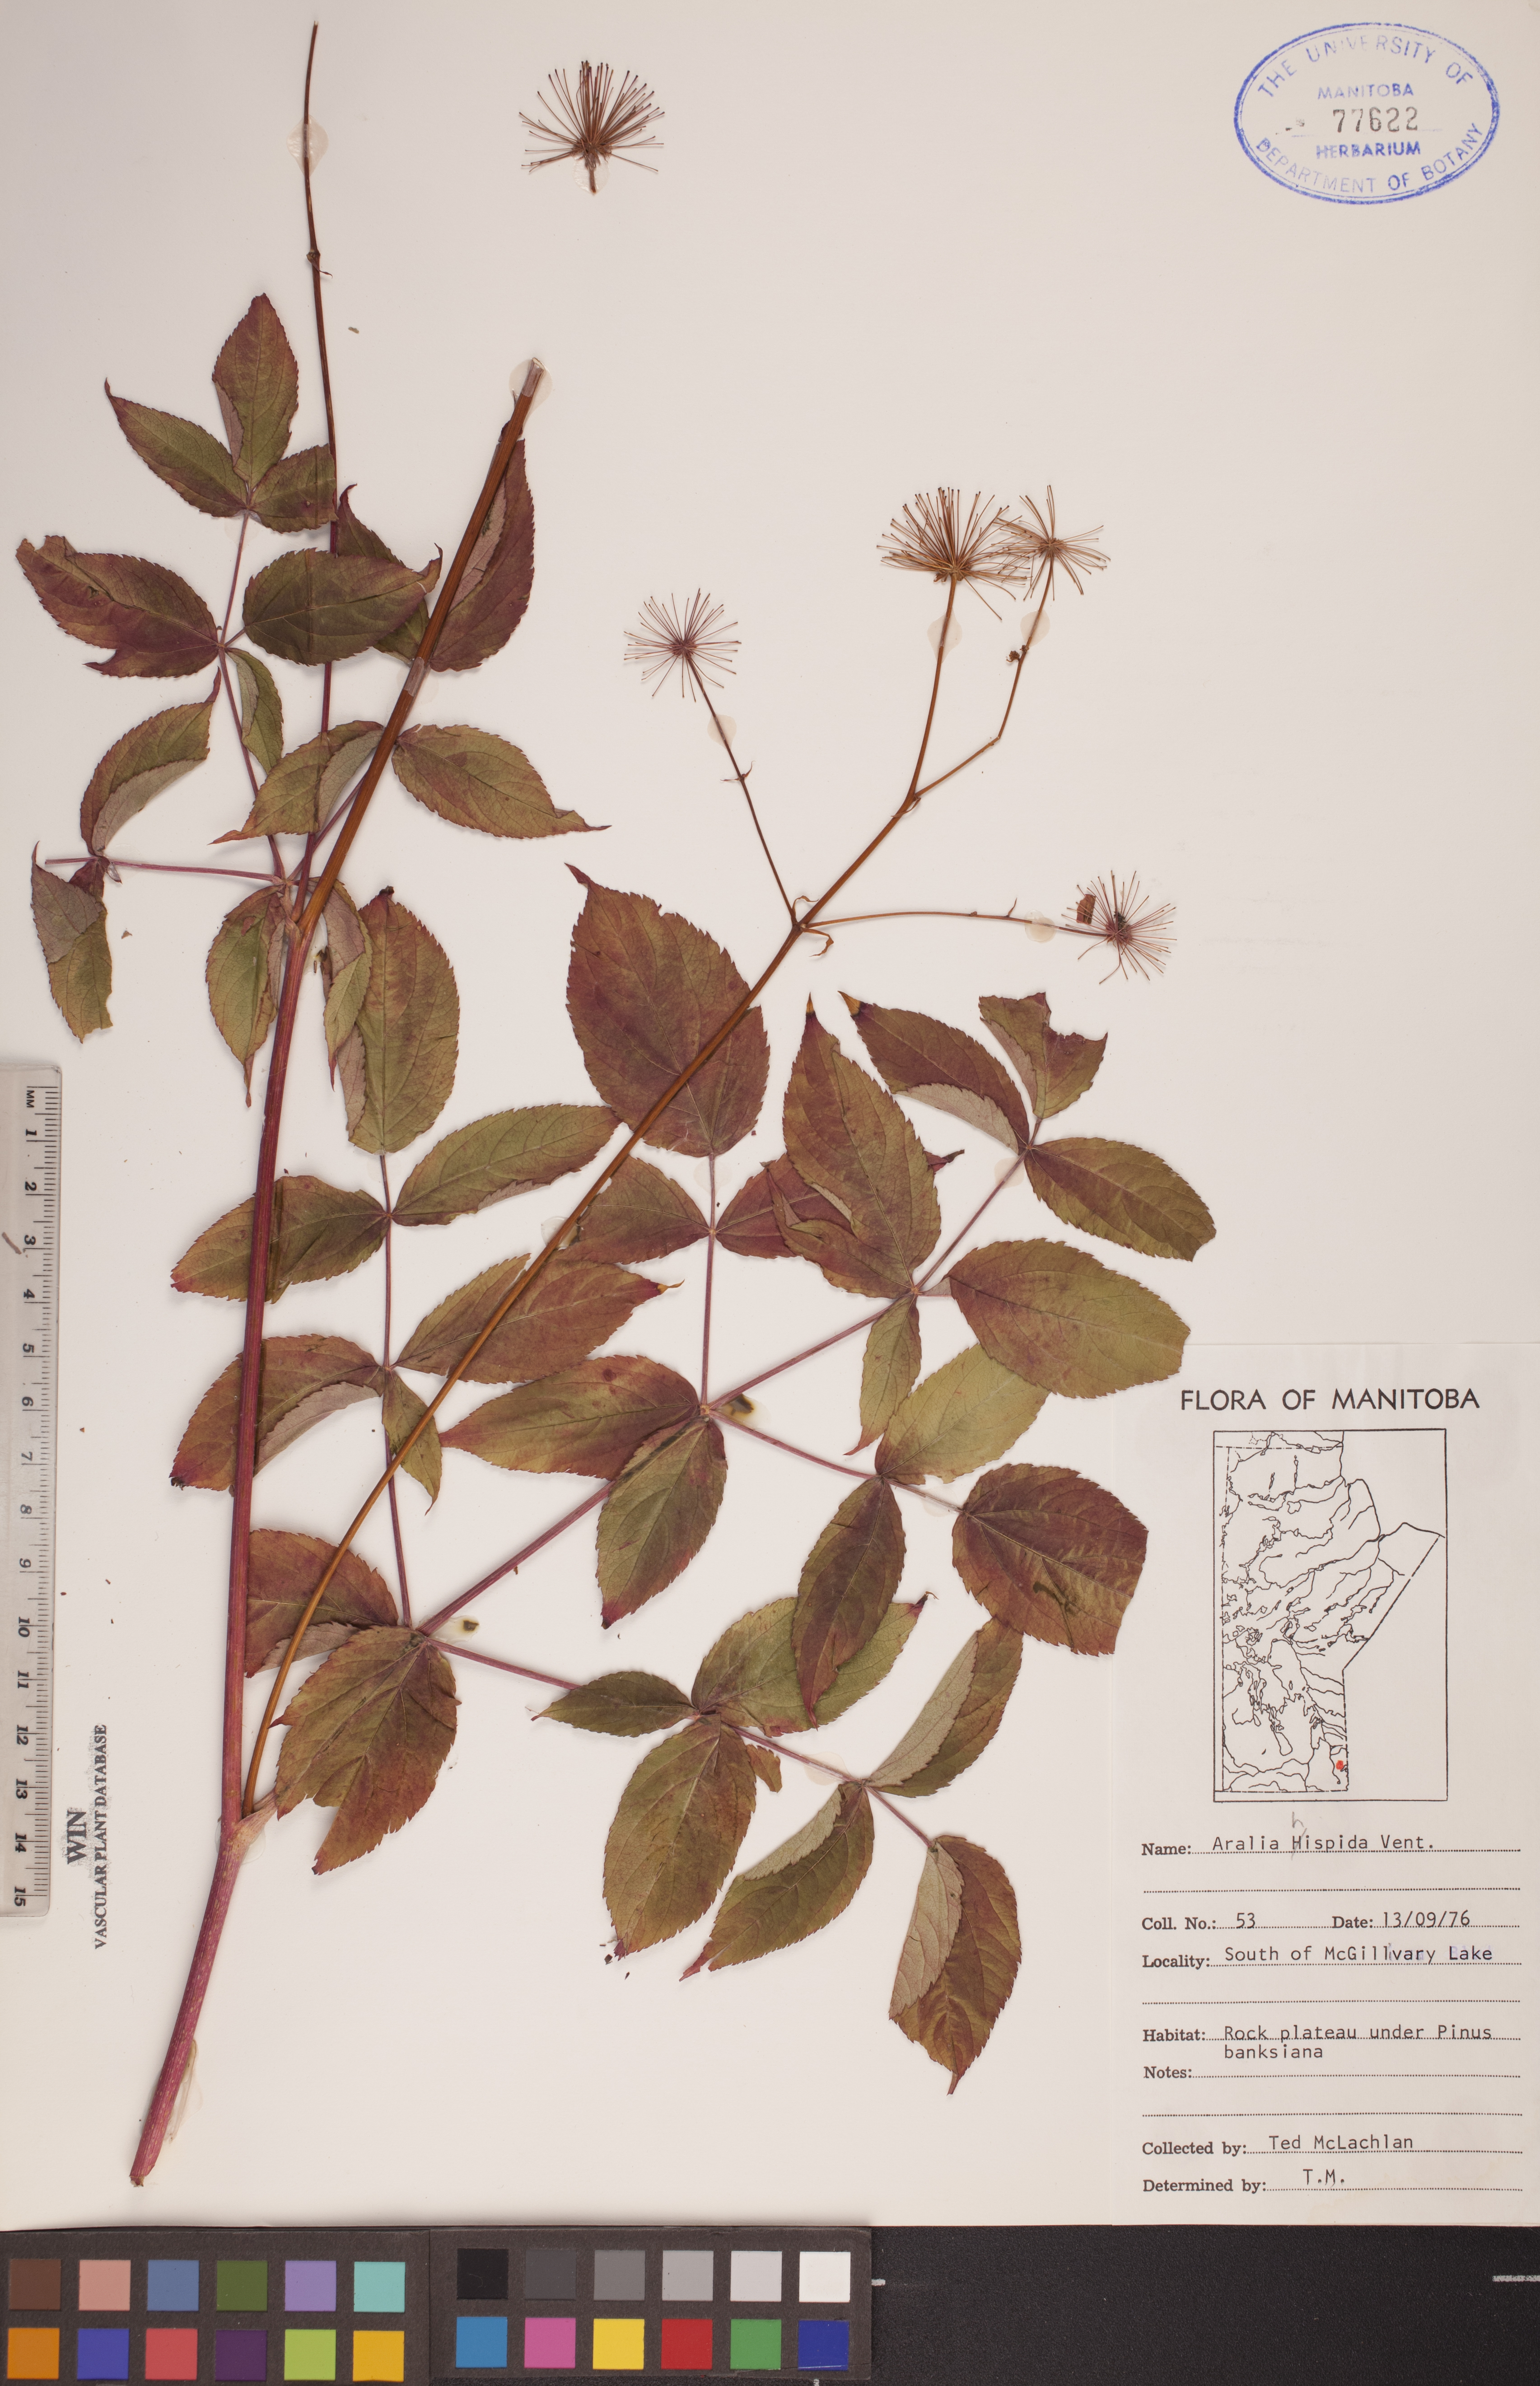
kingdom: Plantae
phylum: Tracheophyta
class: Magnoliopsida
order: Apiales
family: Araliaceae
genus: Aralia
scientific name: Aralia hispida
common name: Bristly sarsaparilla
